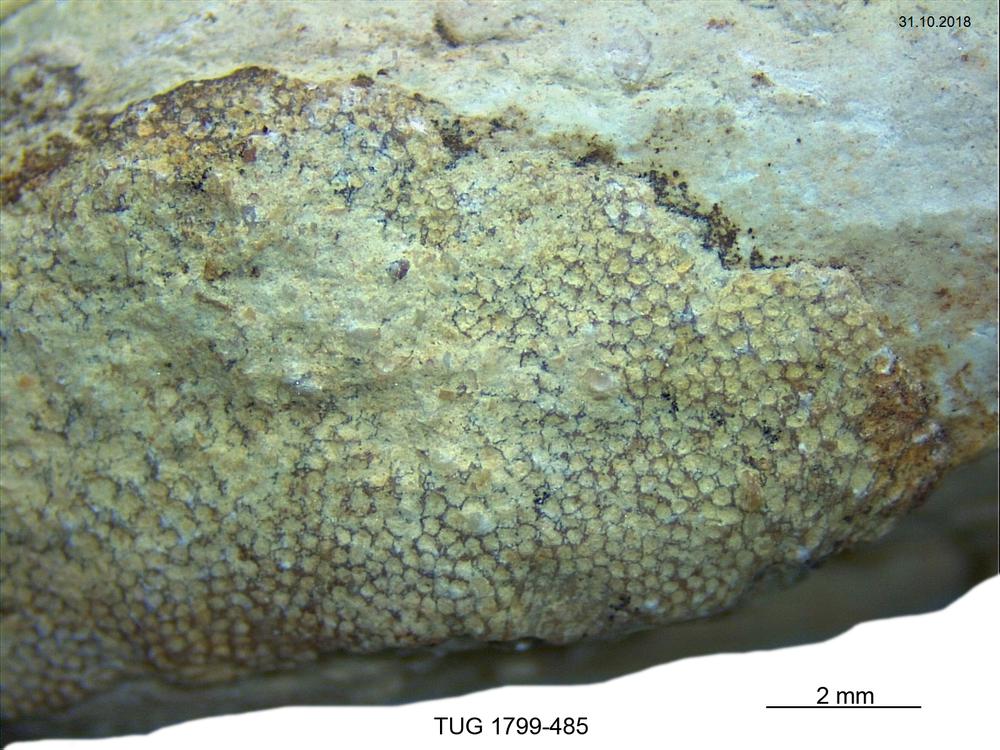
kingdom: Animalia
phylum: Bryozoa
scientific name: Bryozoa
